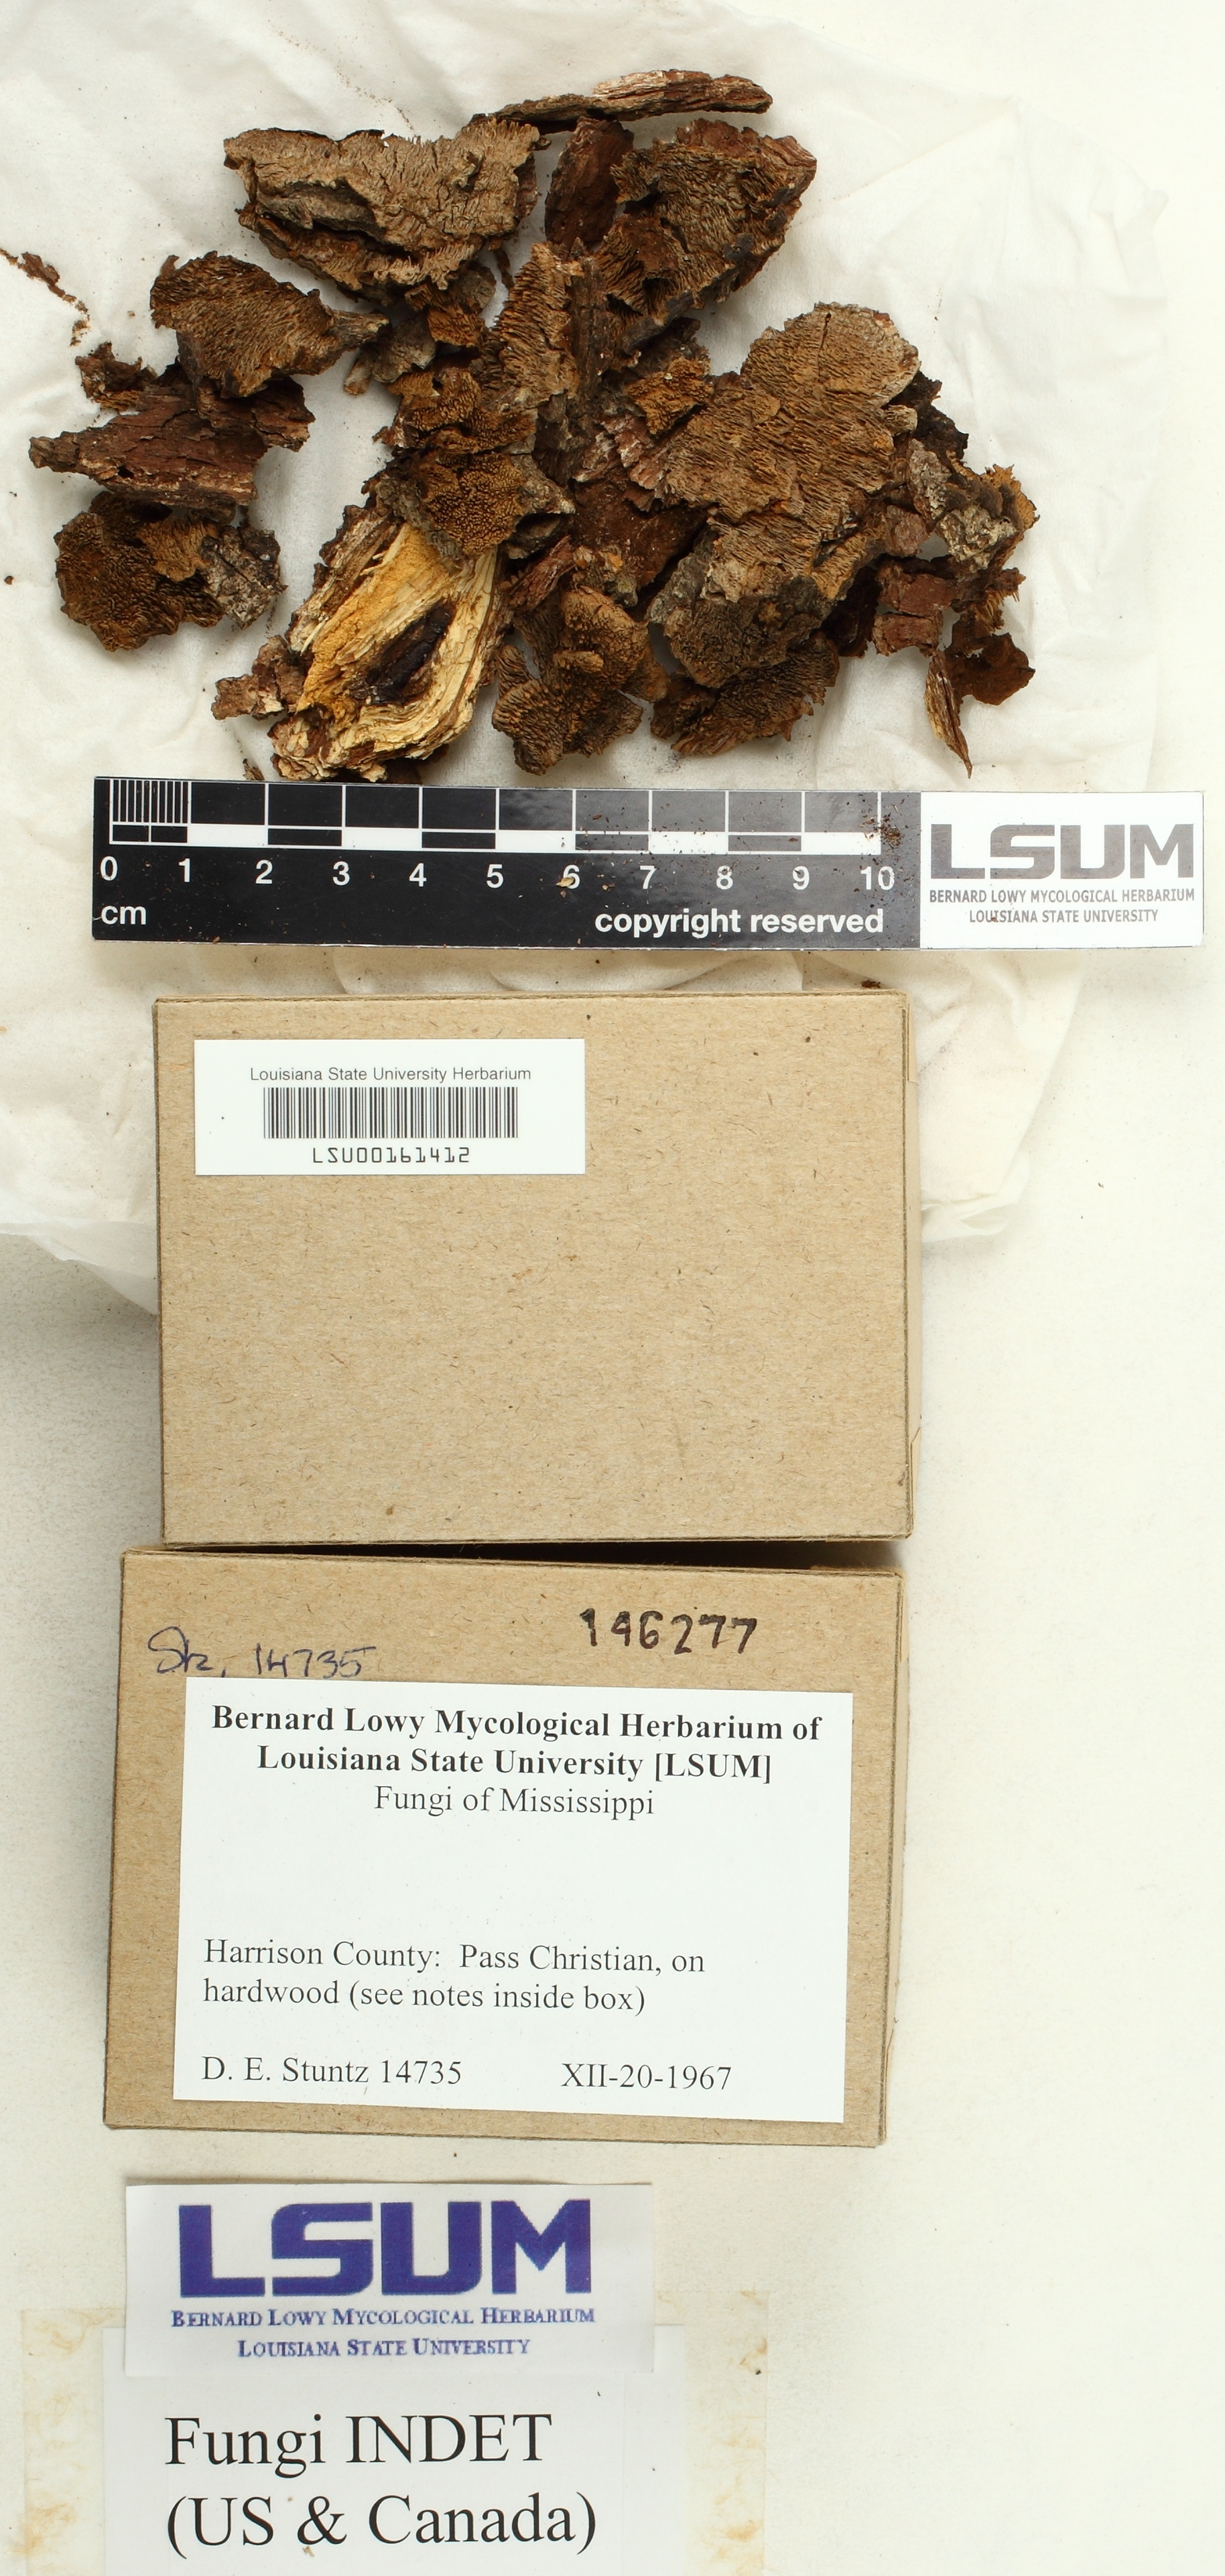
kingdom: Fungi
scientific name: Fungi
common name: Fungi
